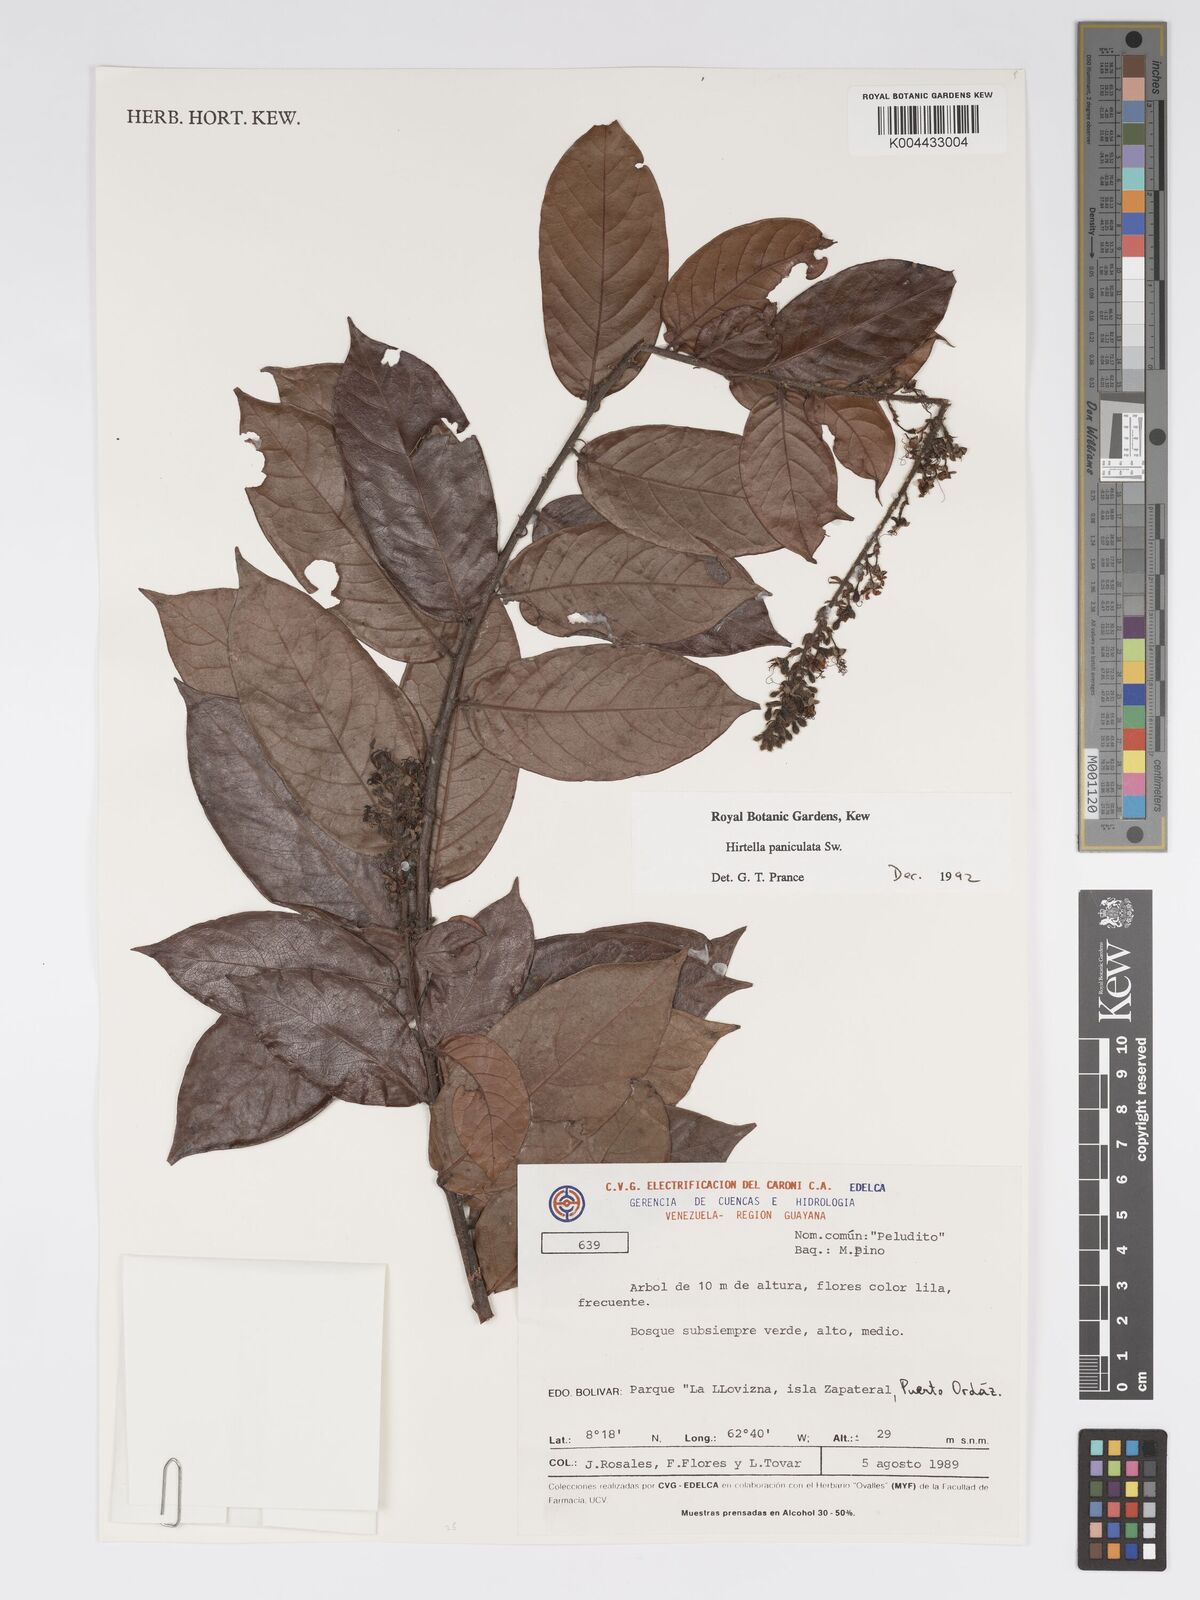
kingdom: Plantae
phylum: Tracheophyta
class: Magnoliopsida
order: Malpighiales
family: Chrysobalanaceae
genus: Hirtella
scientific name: Hirtella
